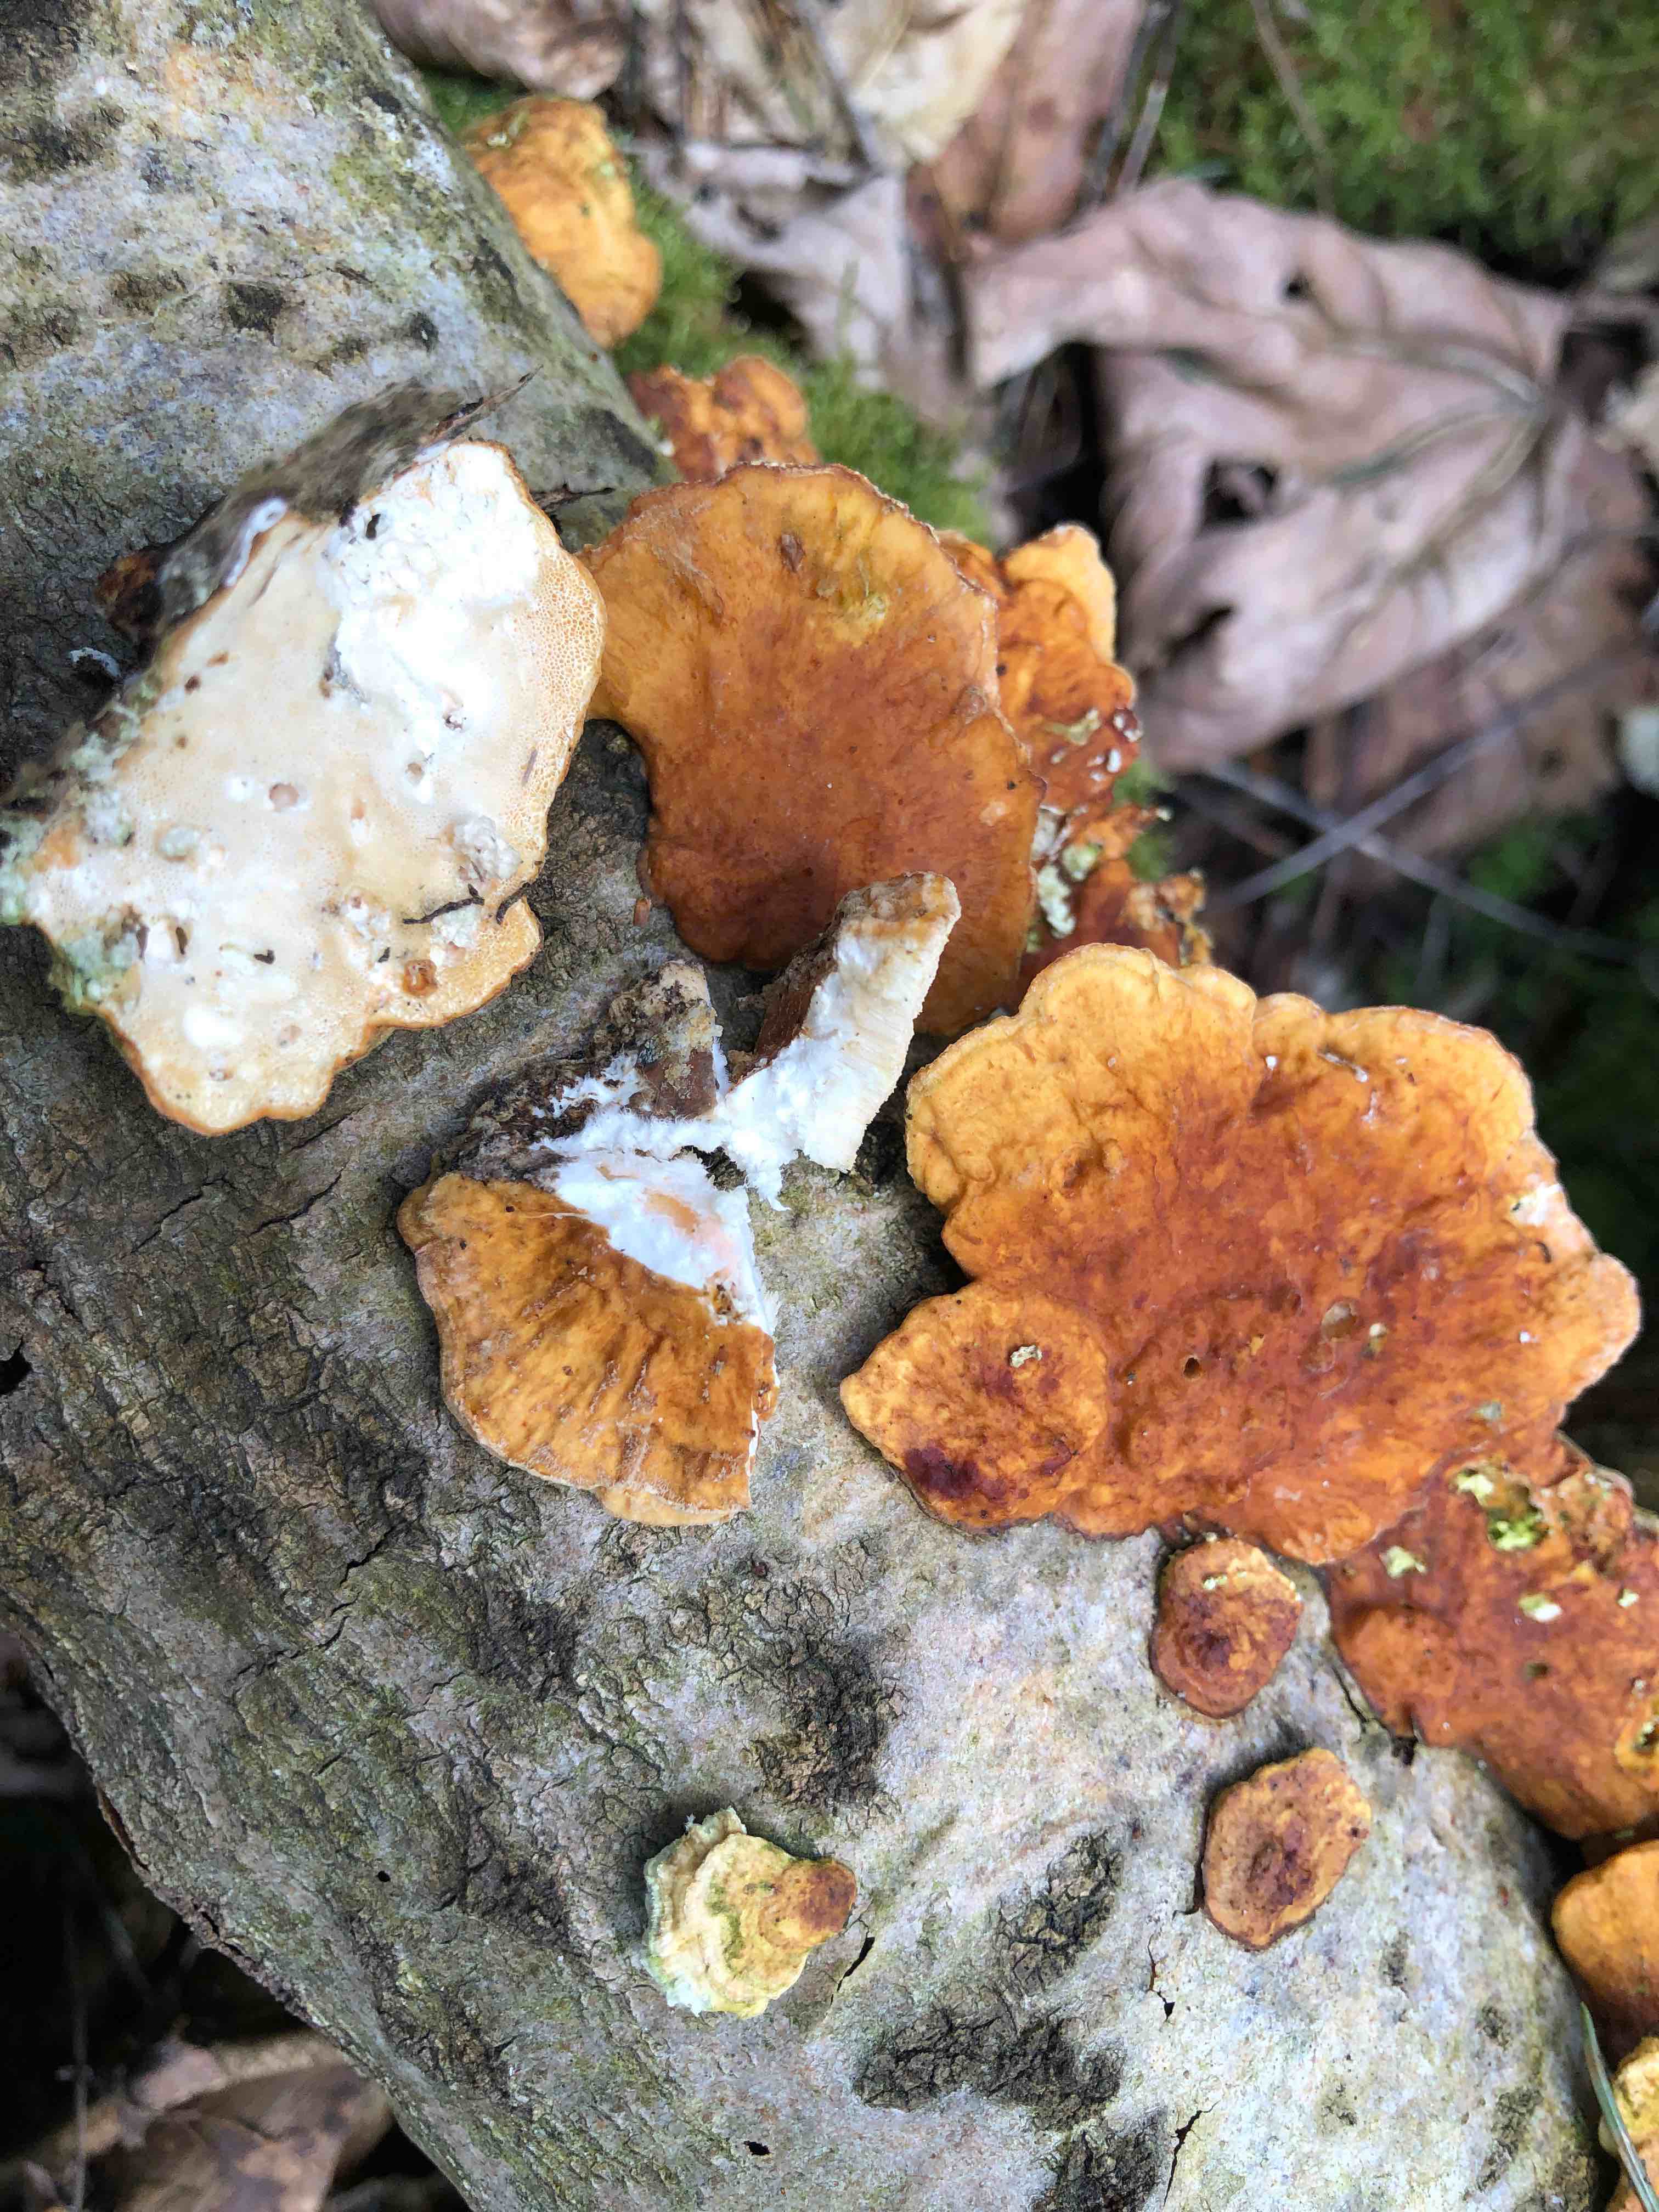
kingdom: Fungi
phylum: Basidiomycota
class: Agaricomycetes
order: Polyporales
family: Polyporaceae
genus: Trametes
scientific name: Trametes ochracea
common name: bæltet læderporesvamp
